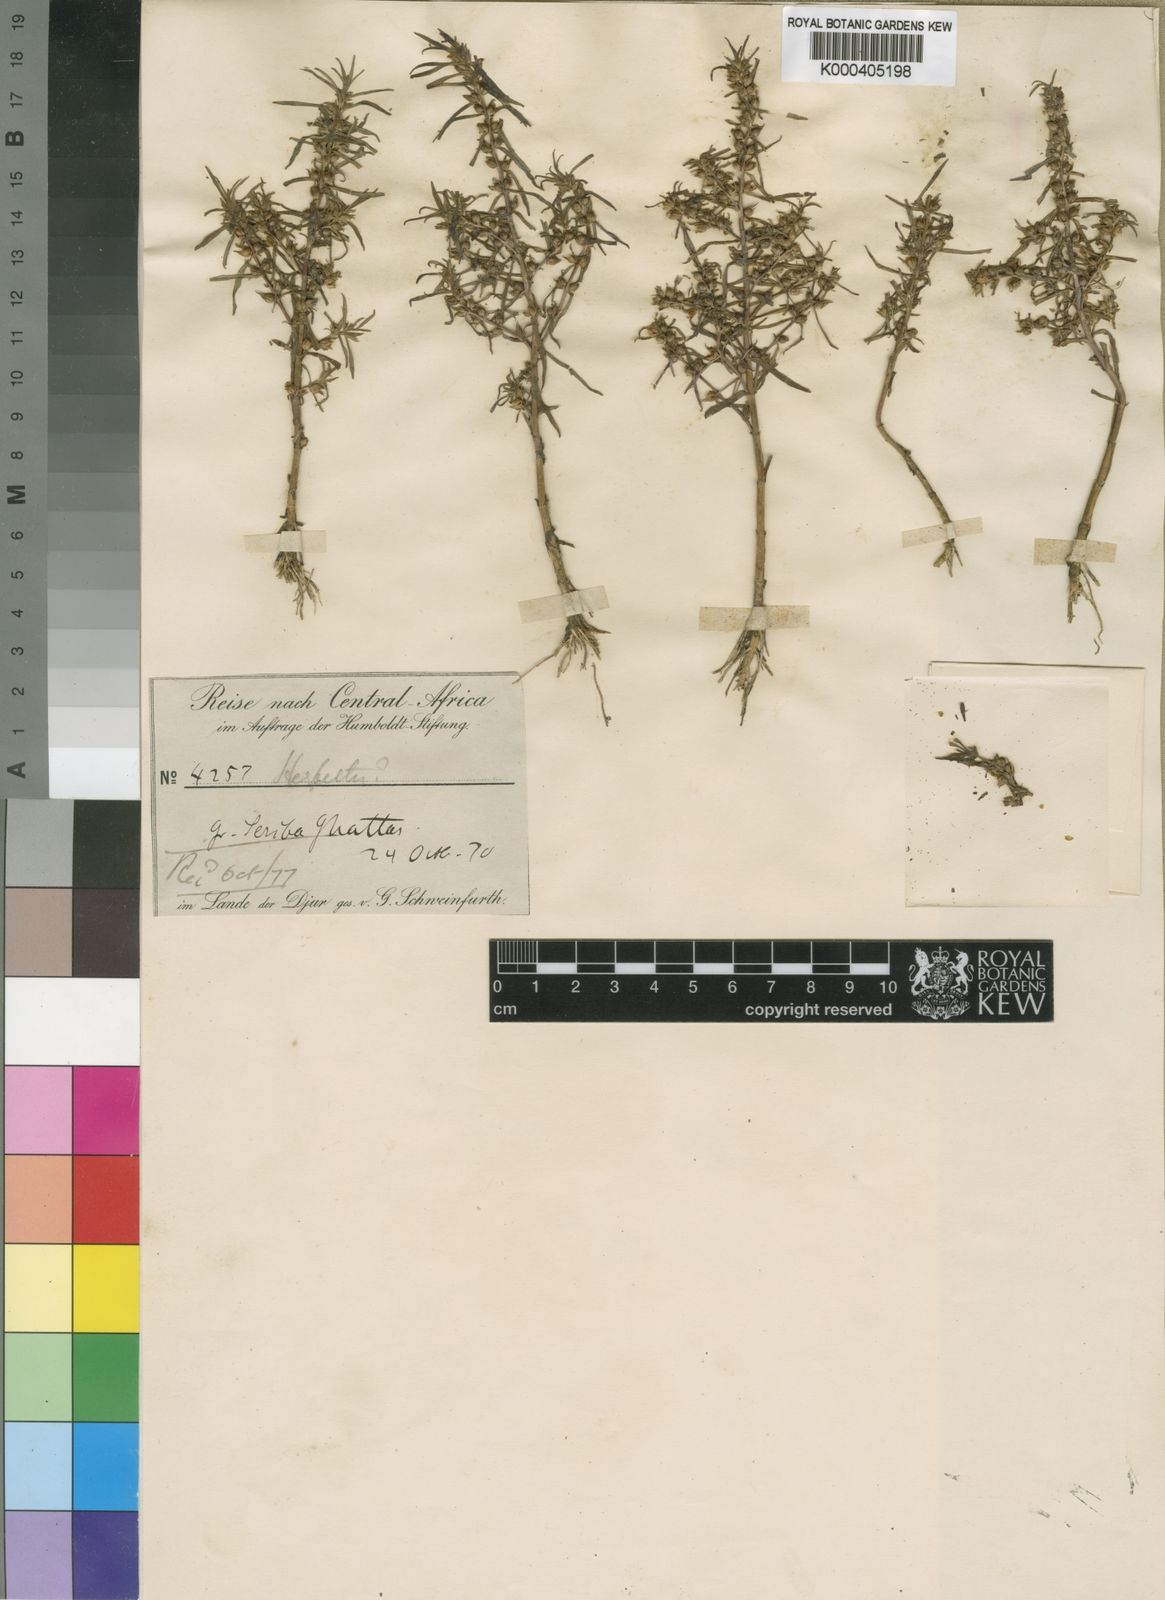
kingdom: Plantae
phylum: Tracheophyta
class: Magnoliopsida
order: Lamiales
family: Plantaginaceae
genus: Bacopa
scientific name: Bacopa punctata
